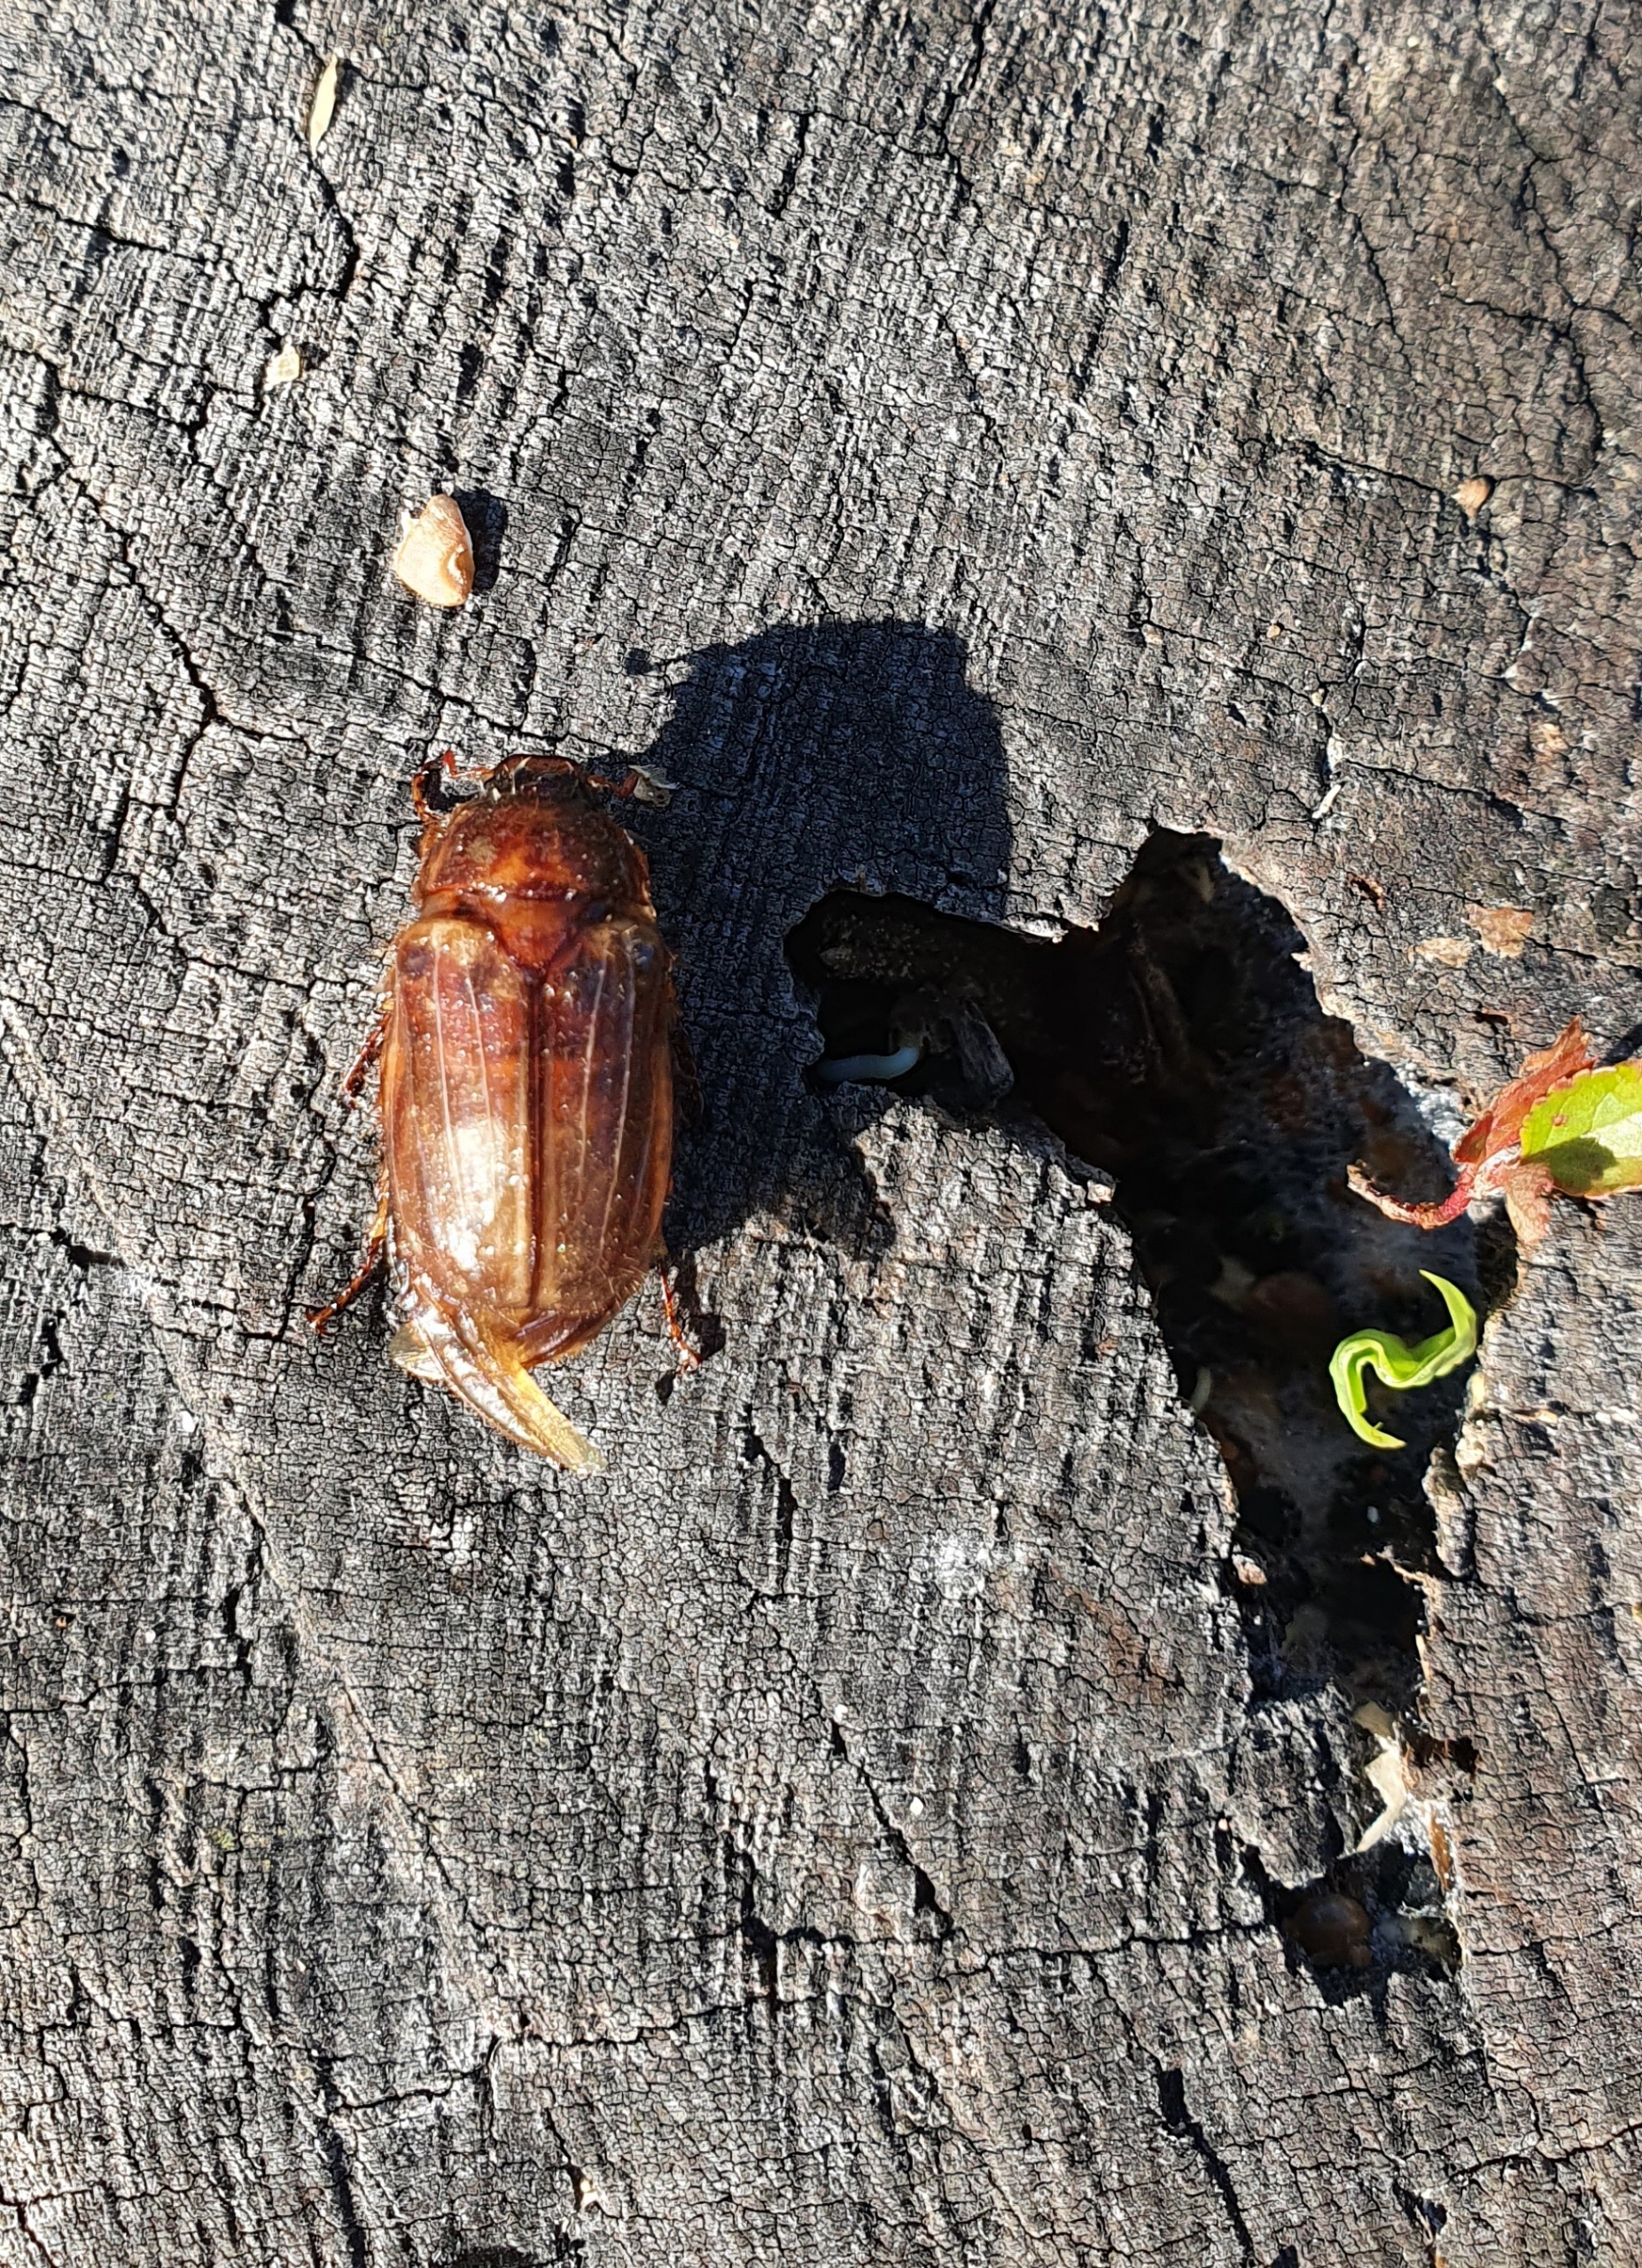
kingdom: Animalia
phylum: Arthropoda
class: Insecta
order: Coleoptera
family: Scarabaeidae
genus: Amphimallon
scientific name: Amphimallon solstitiale
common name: Sankthansoldenborre
